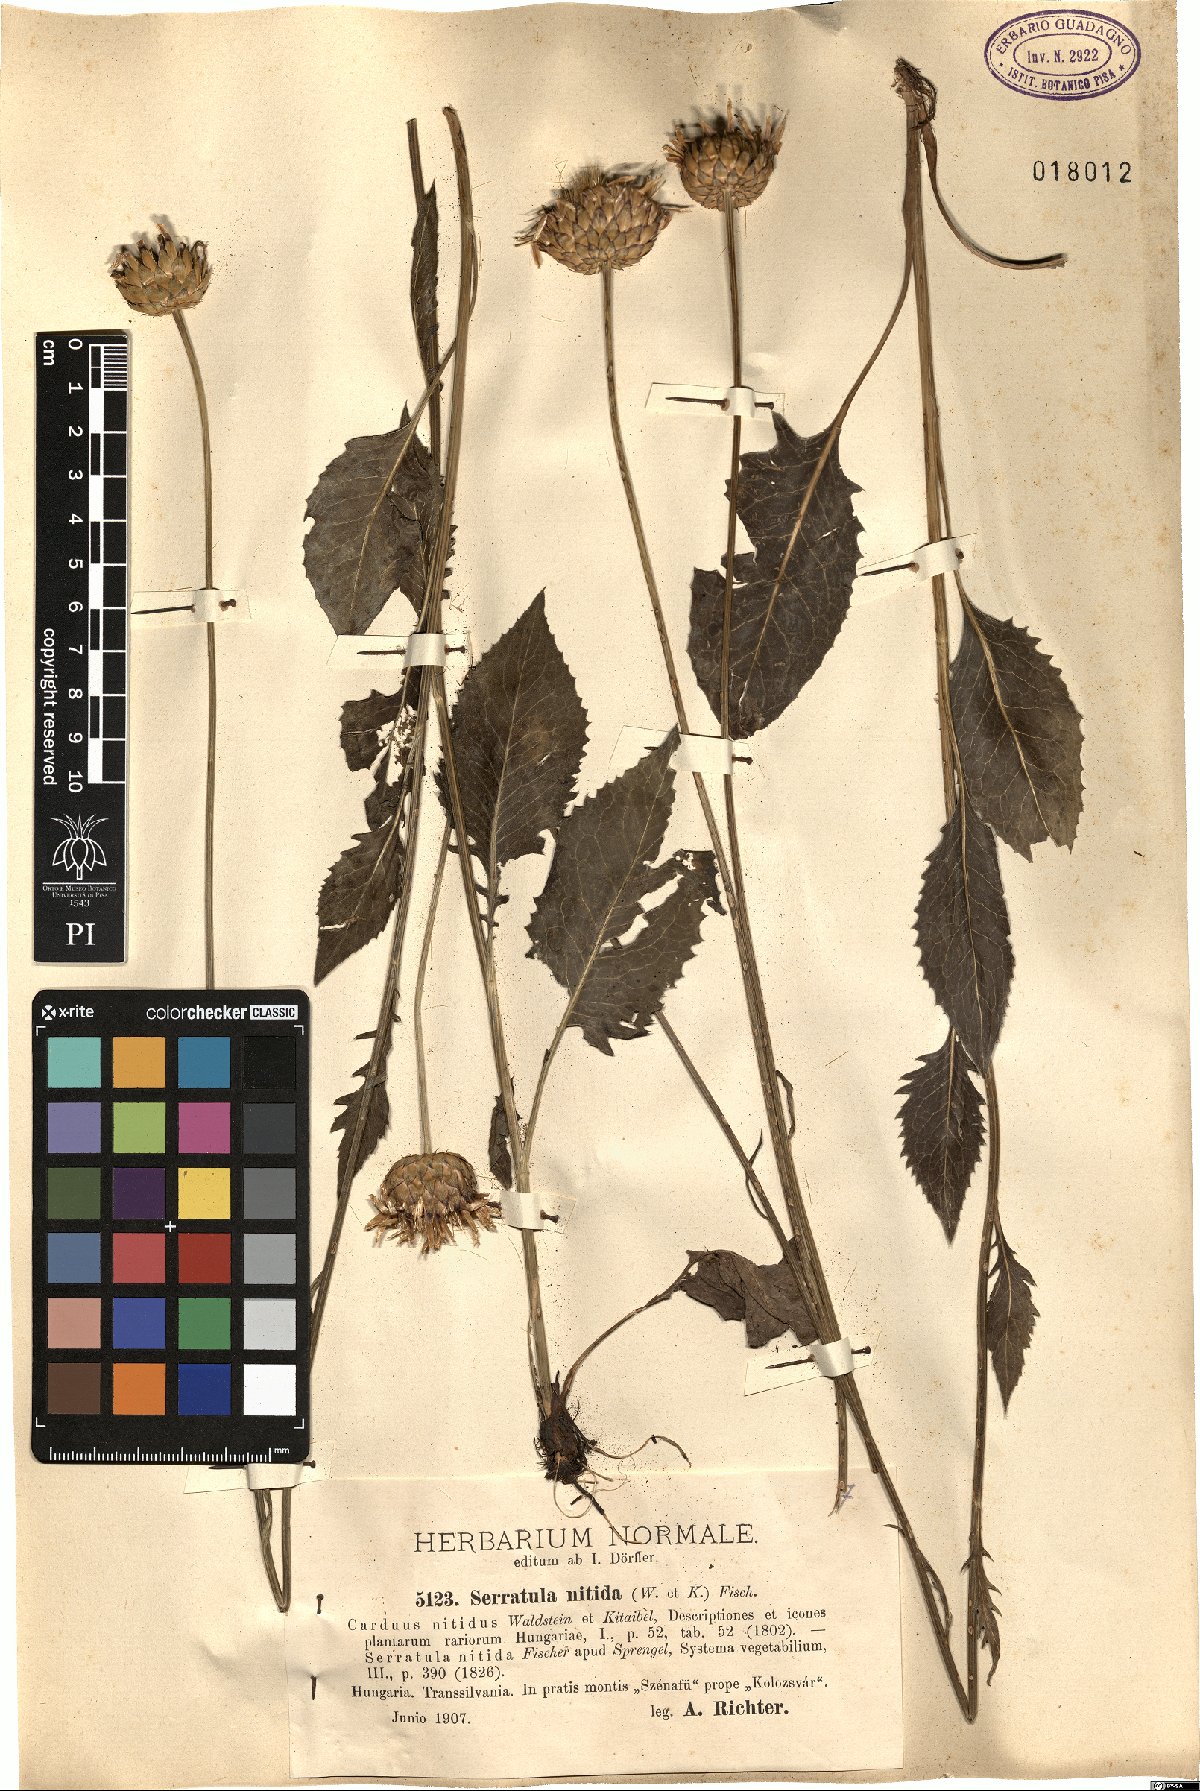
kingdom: Plantae
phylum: Tracheophyta
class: Magnoliopsida
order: Asterales
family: Asteraceae
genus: Klasea
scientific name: Klasea cardunculus
